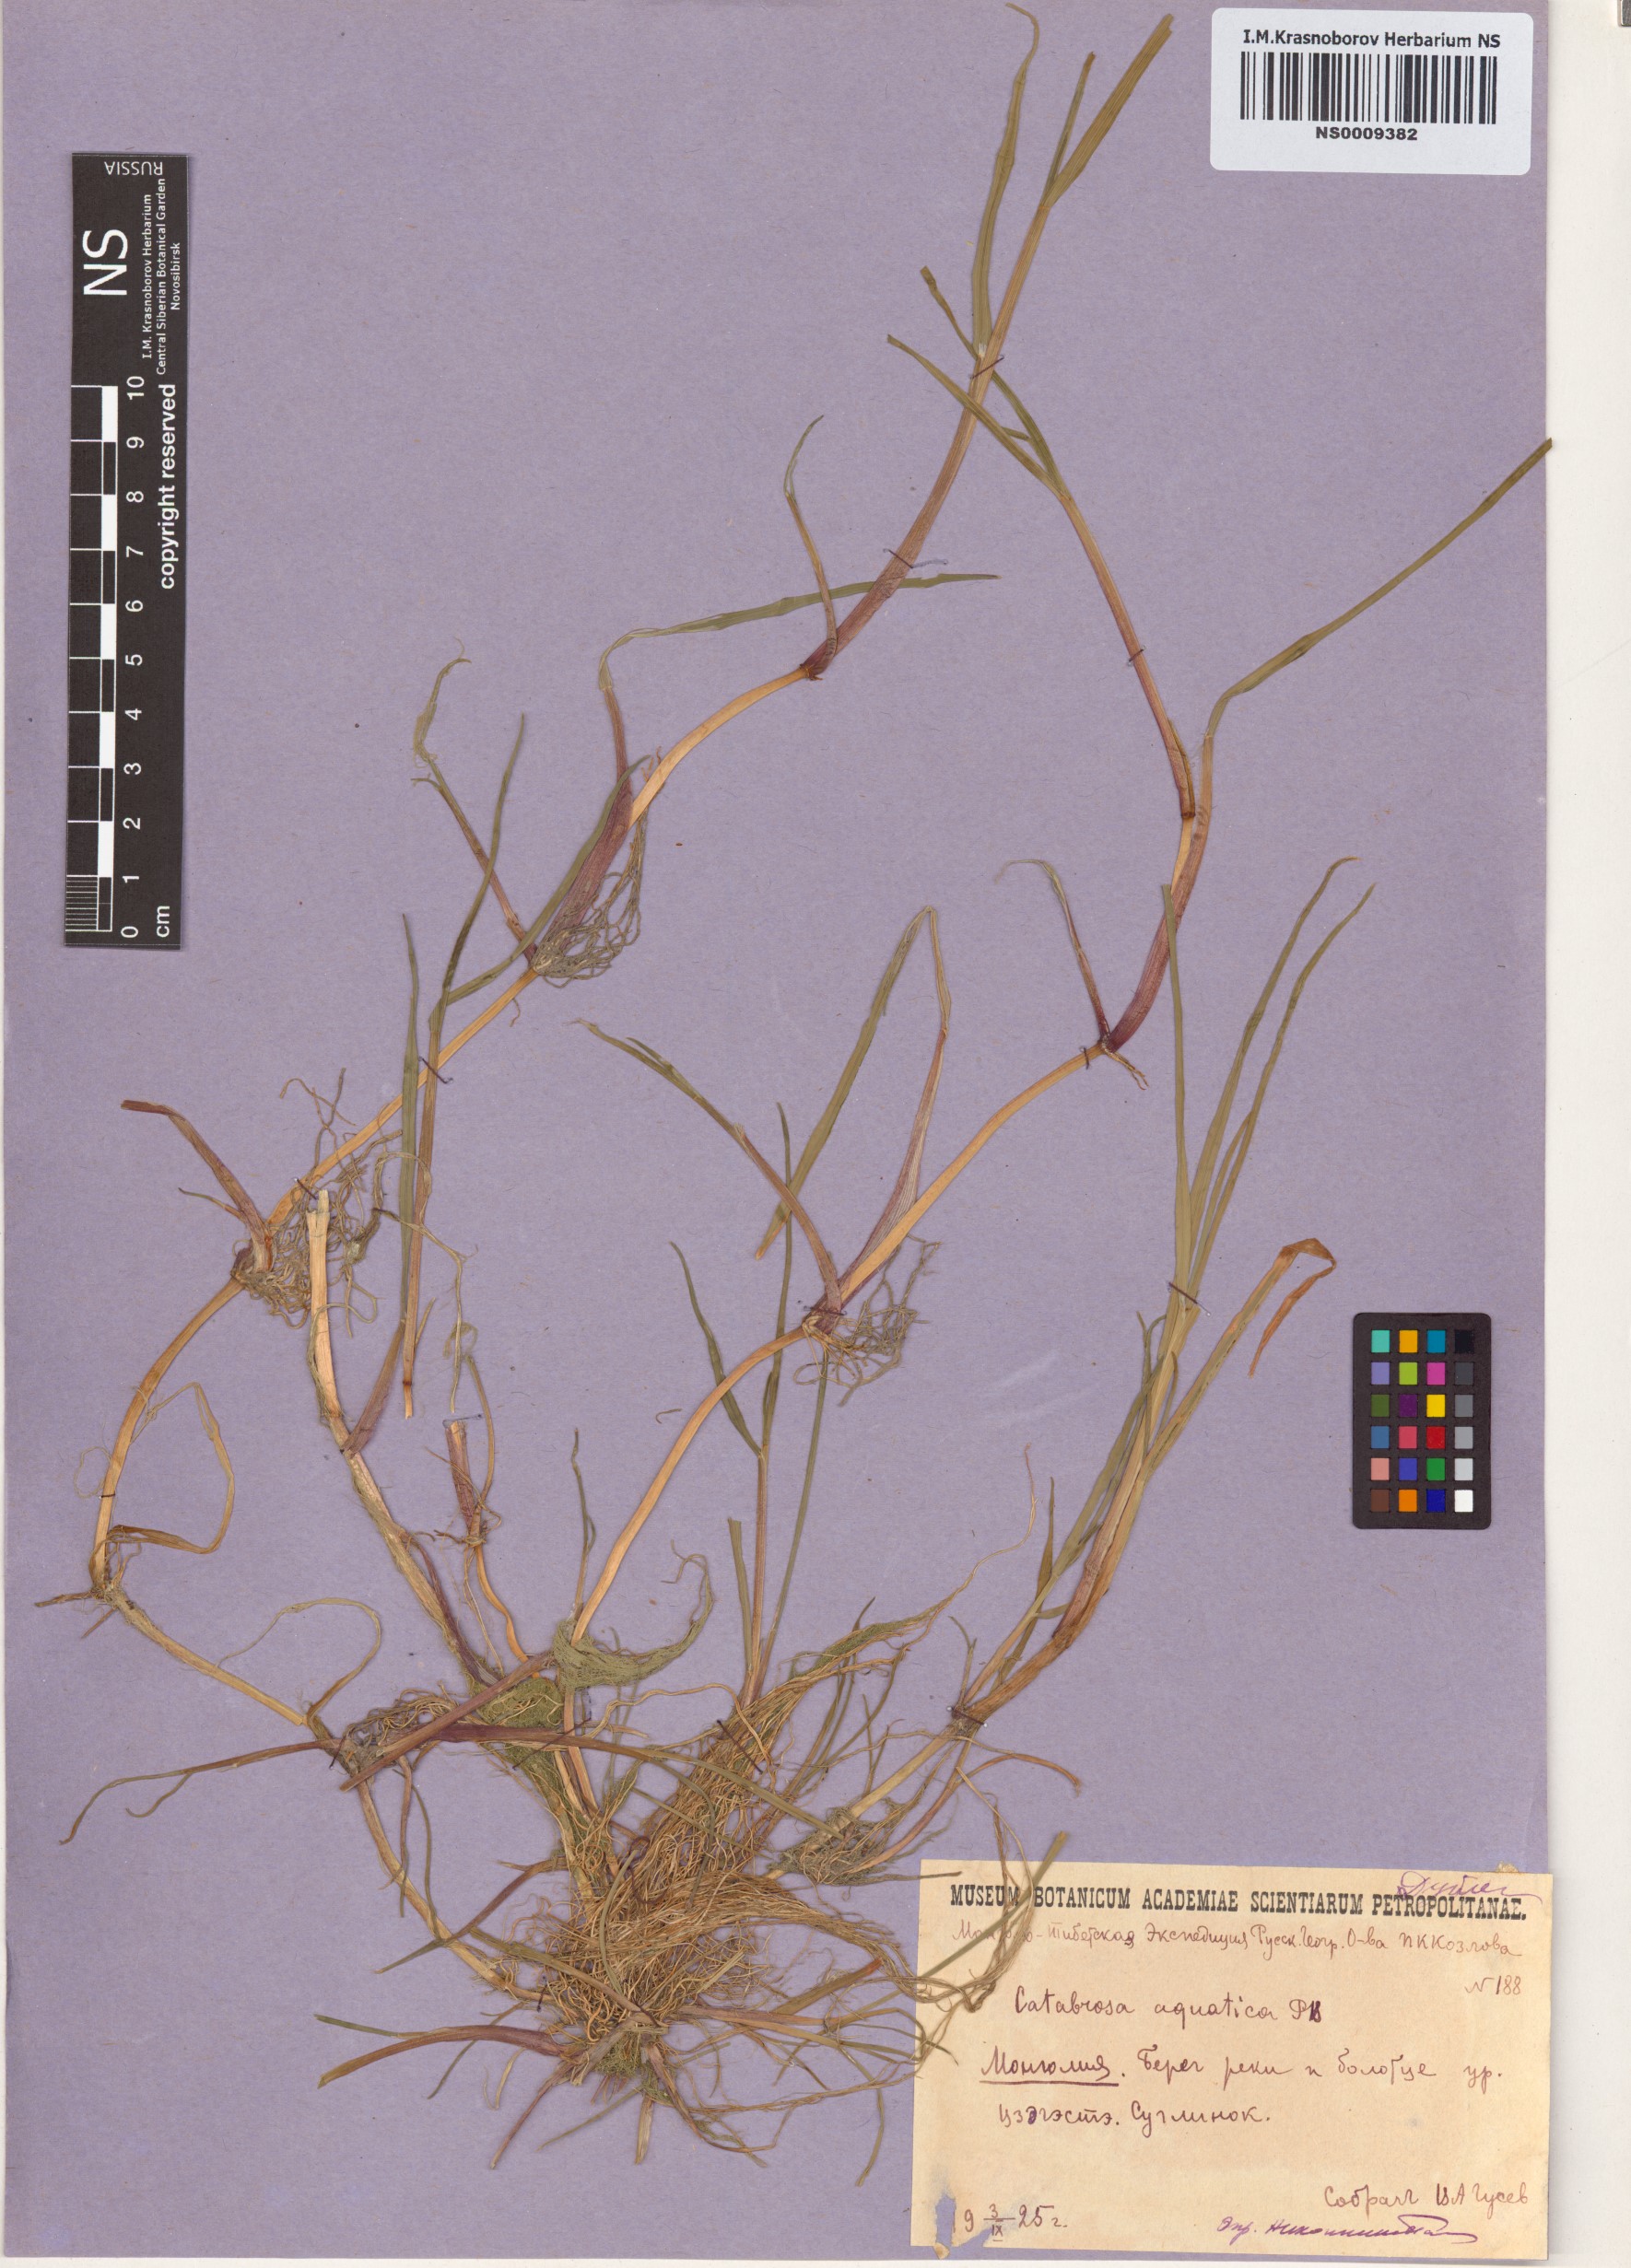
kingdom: Plantae
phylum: Tracheophyta
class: Liliopsida
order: Poales
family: Poaceae
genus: Catabrosa
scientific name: Catabrosa aquatica
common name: Whorl-grass
